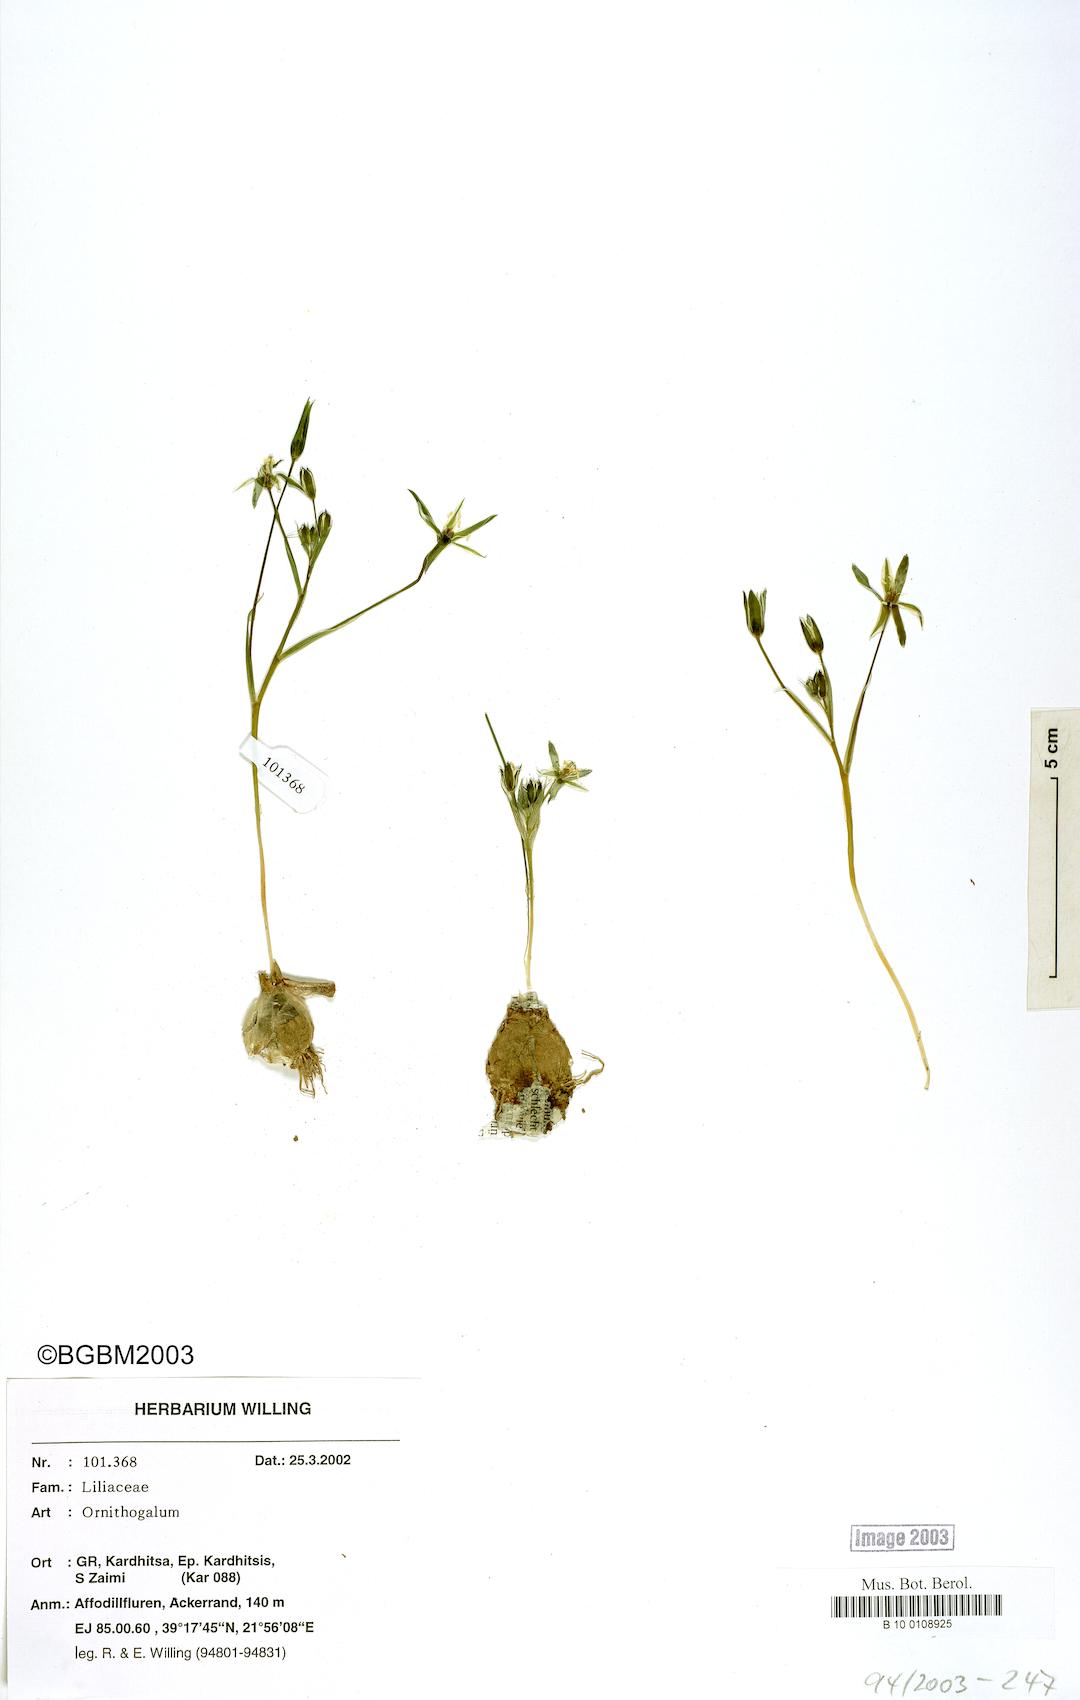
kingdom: Plantae
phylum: Tracheophyta
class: Liliopsida
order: Asparagales
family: Asparagaceae
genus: Ornithogalum
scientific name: Ornithogalum
